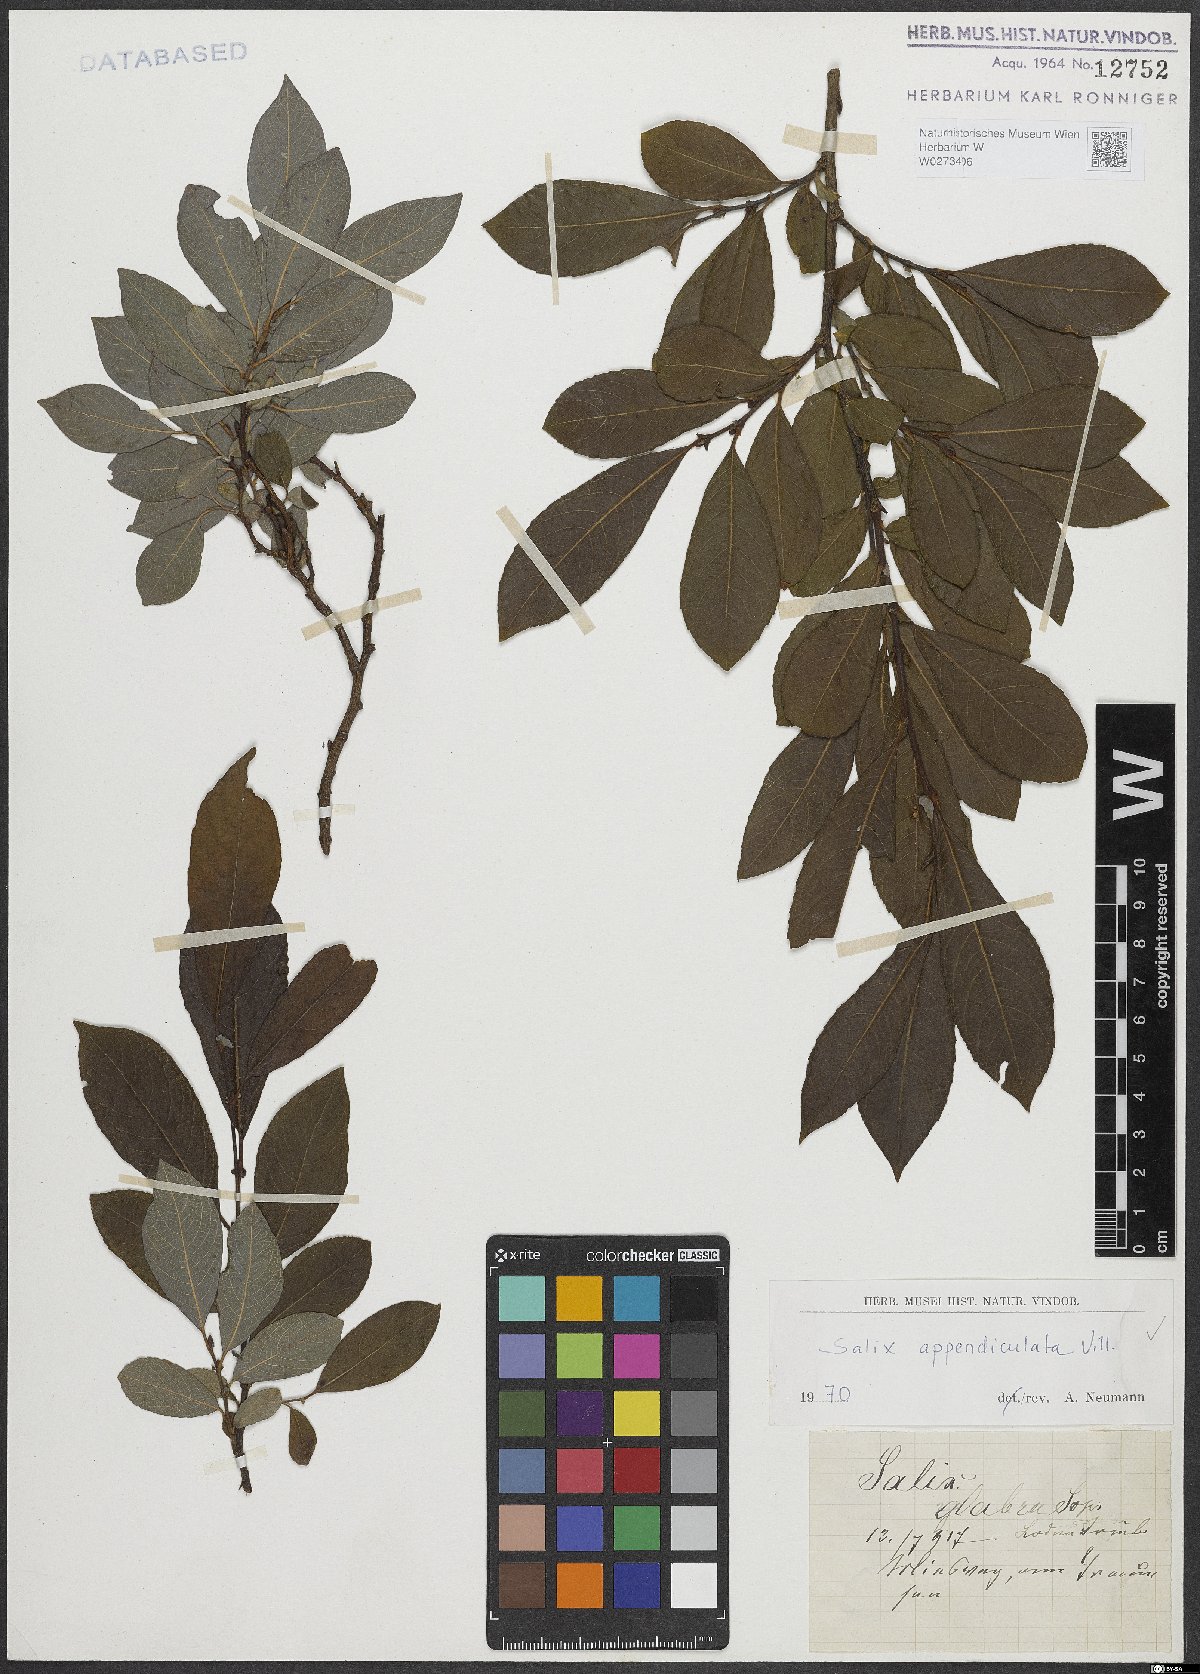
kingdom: Plantae
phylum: Tracheophyta
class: Magnoliopsida
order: Malpighiales
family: Salicaceae
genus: Salix
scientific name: Salix appendiculata
